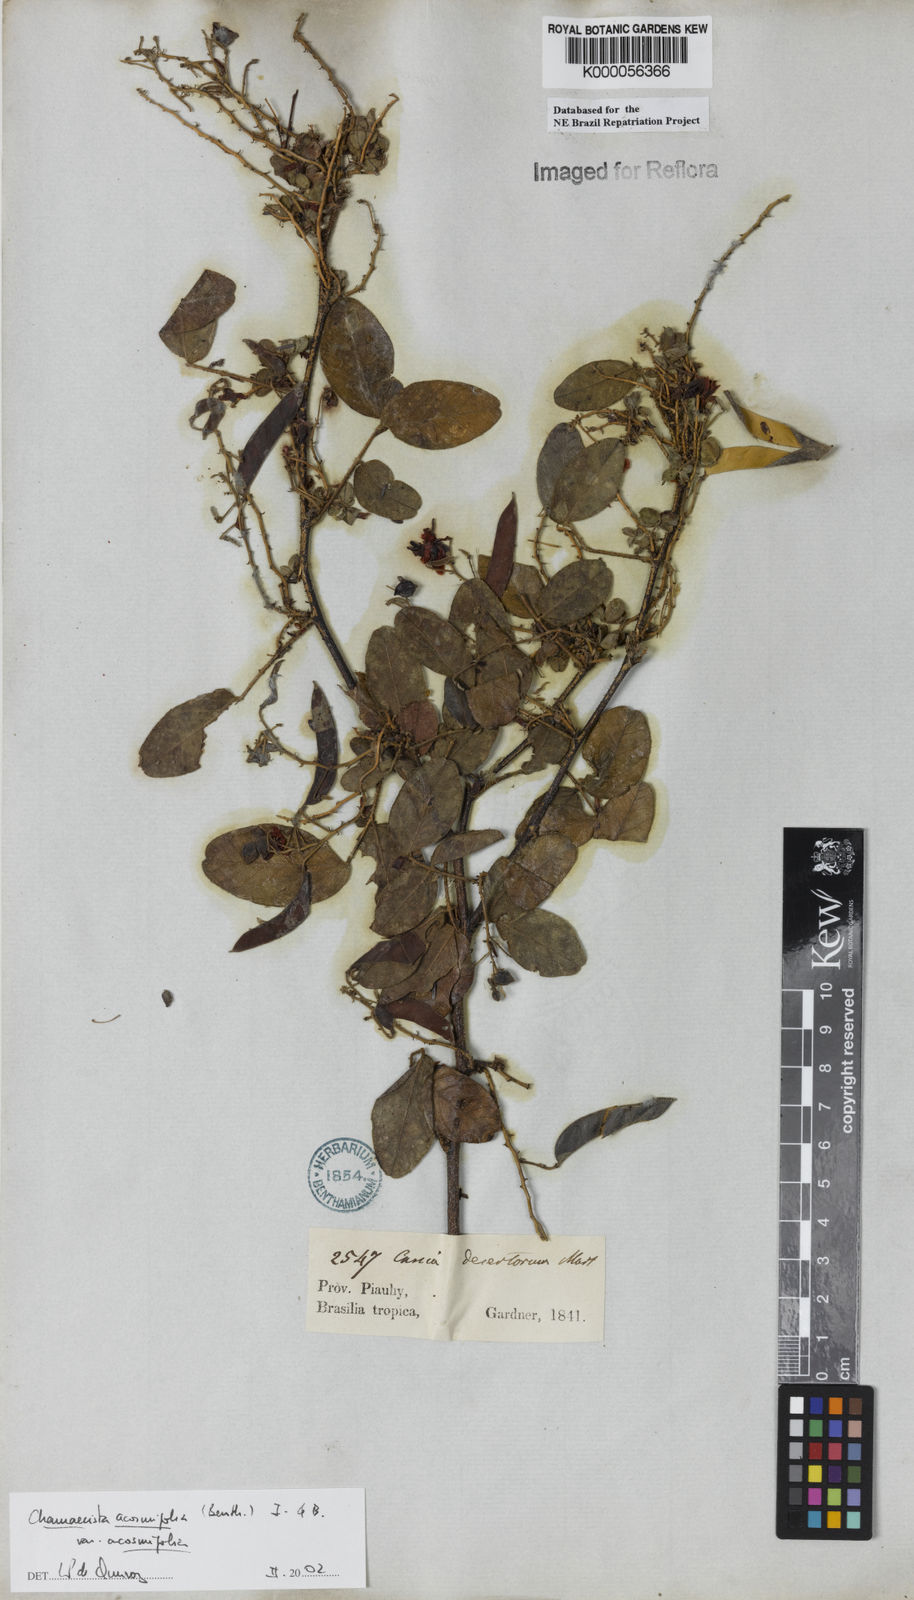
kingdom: Plantae
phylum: Tracheophyta
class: Magnoliopsida
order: Fabales
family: Fabaceae
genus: Chamaecrista
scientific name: Chamaecrista acosmifolia
